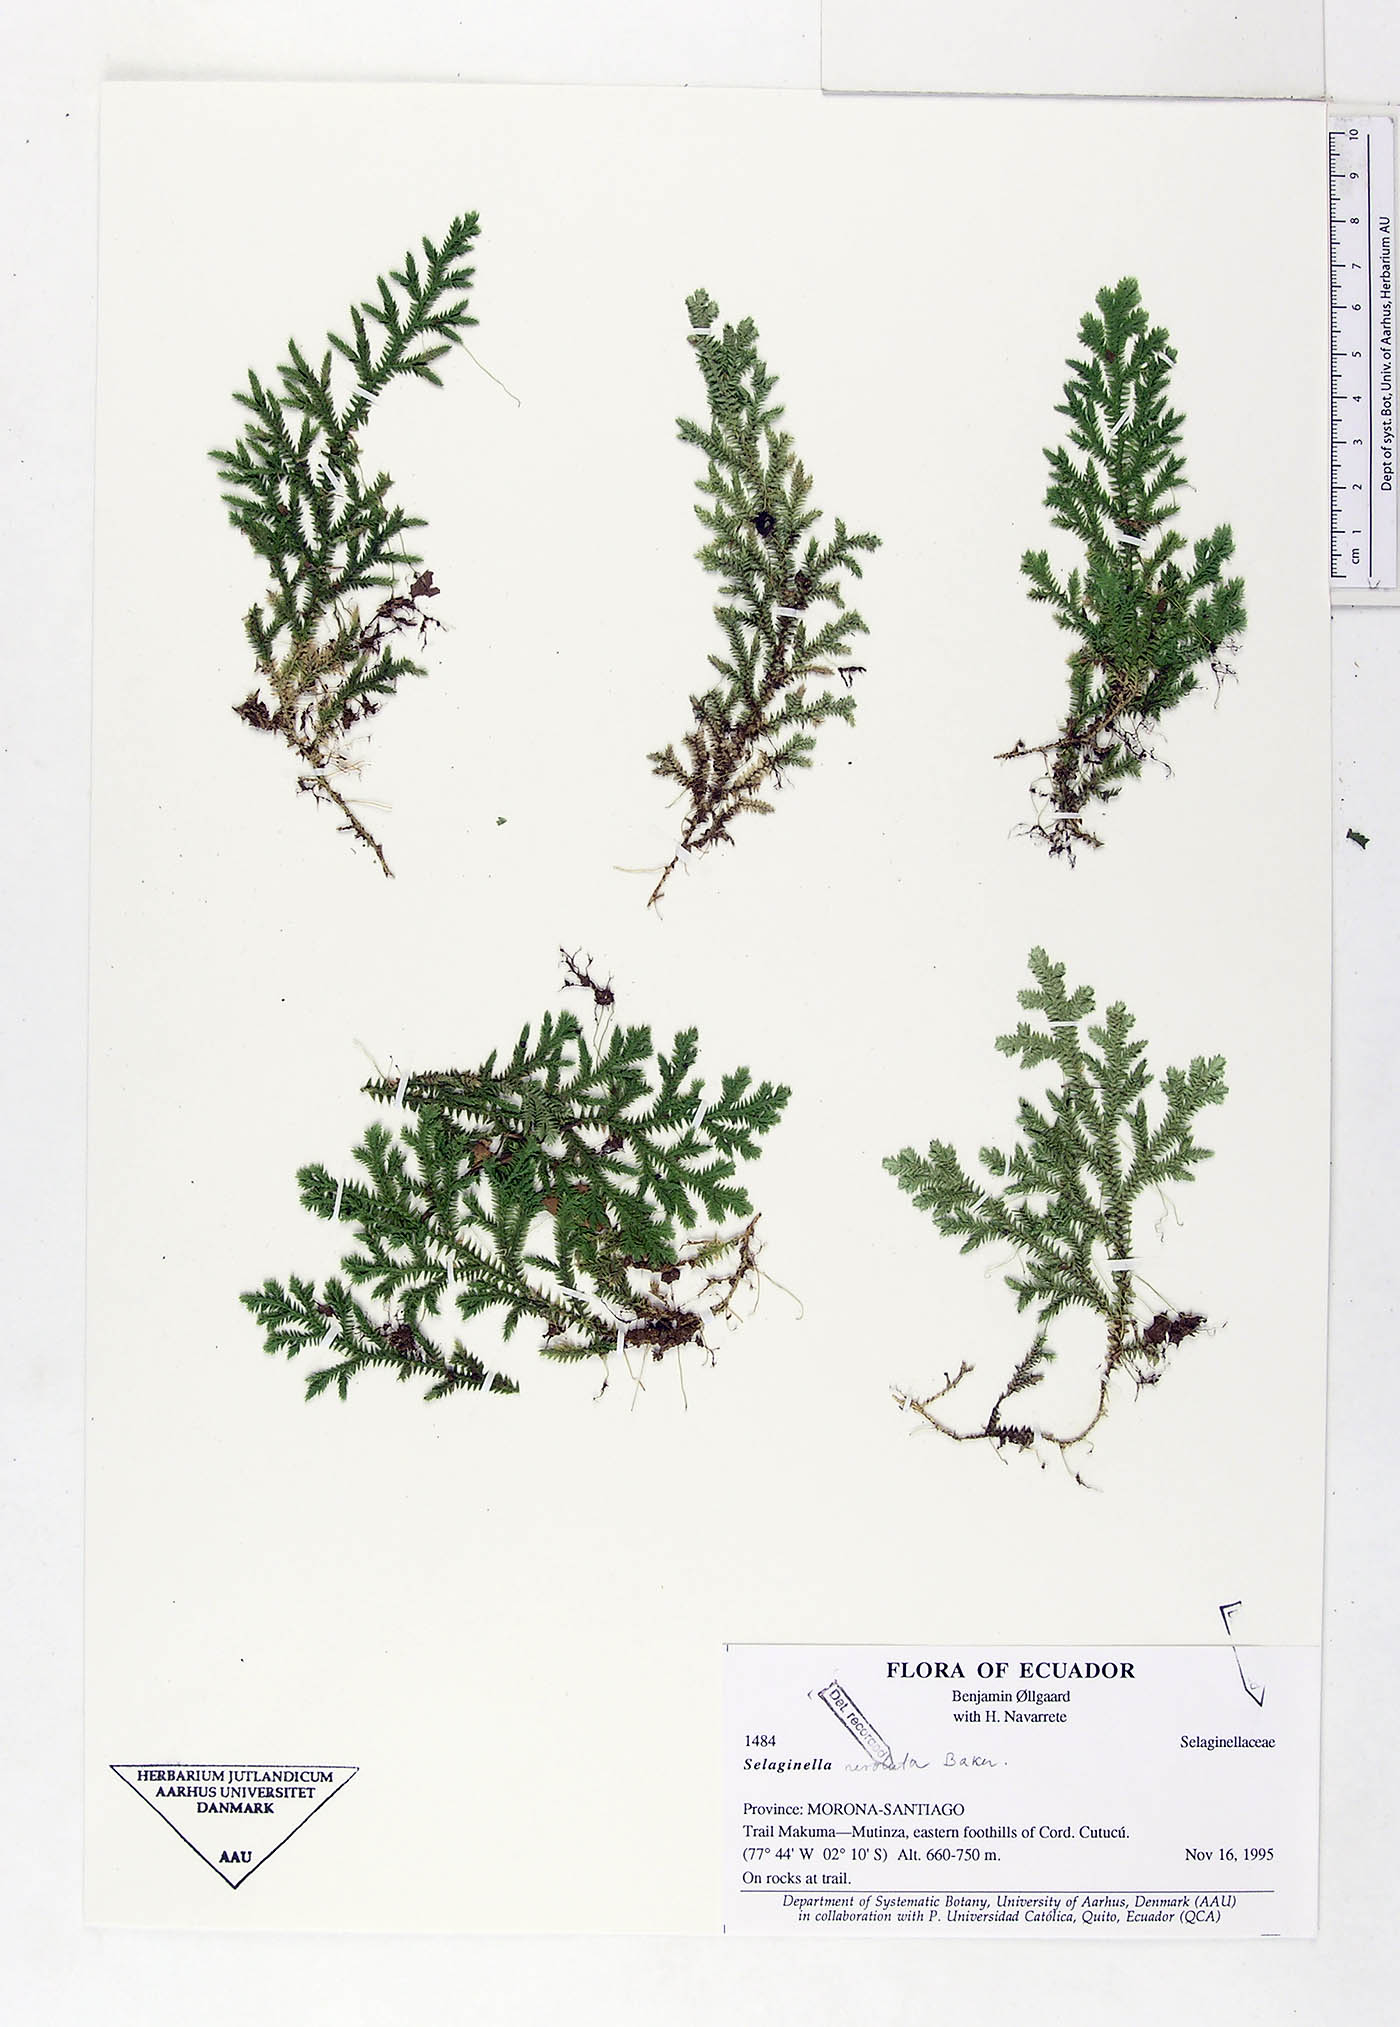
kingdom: Plantae
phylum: Tracheophyta
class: Lycopodiopsida
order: Selaginellales
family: Selaginellaceae
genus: Selaginella
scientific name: Selaginella revoluta
